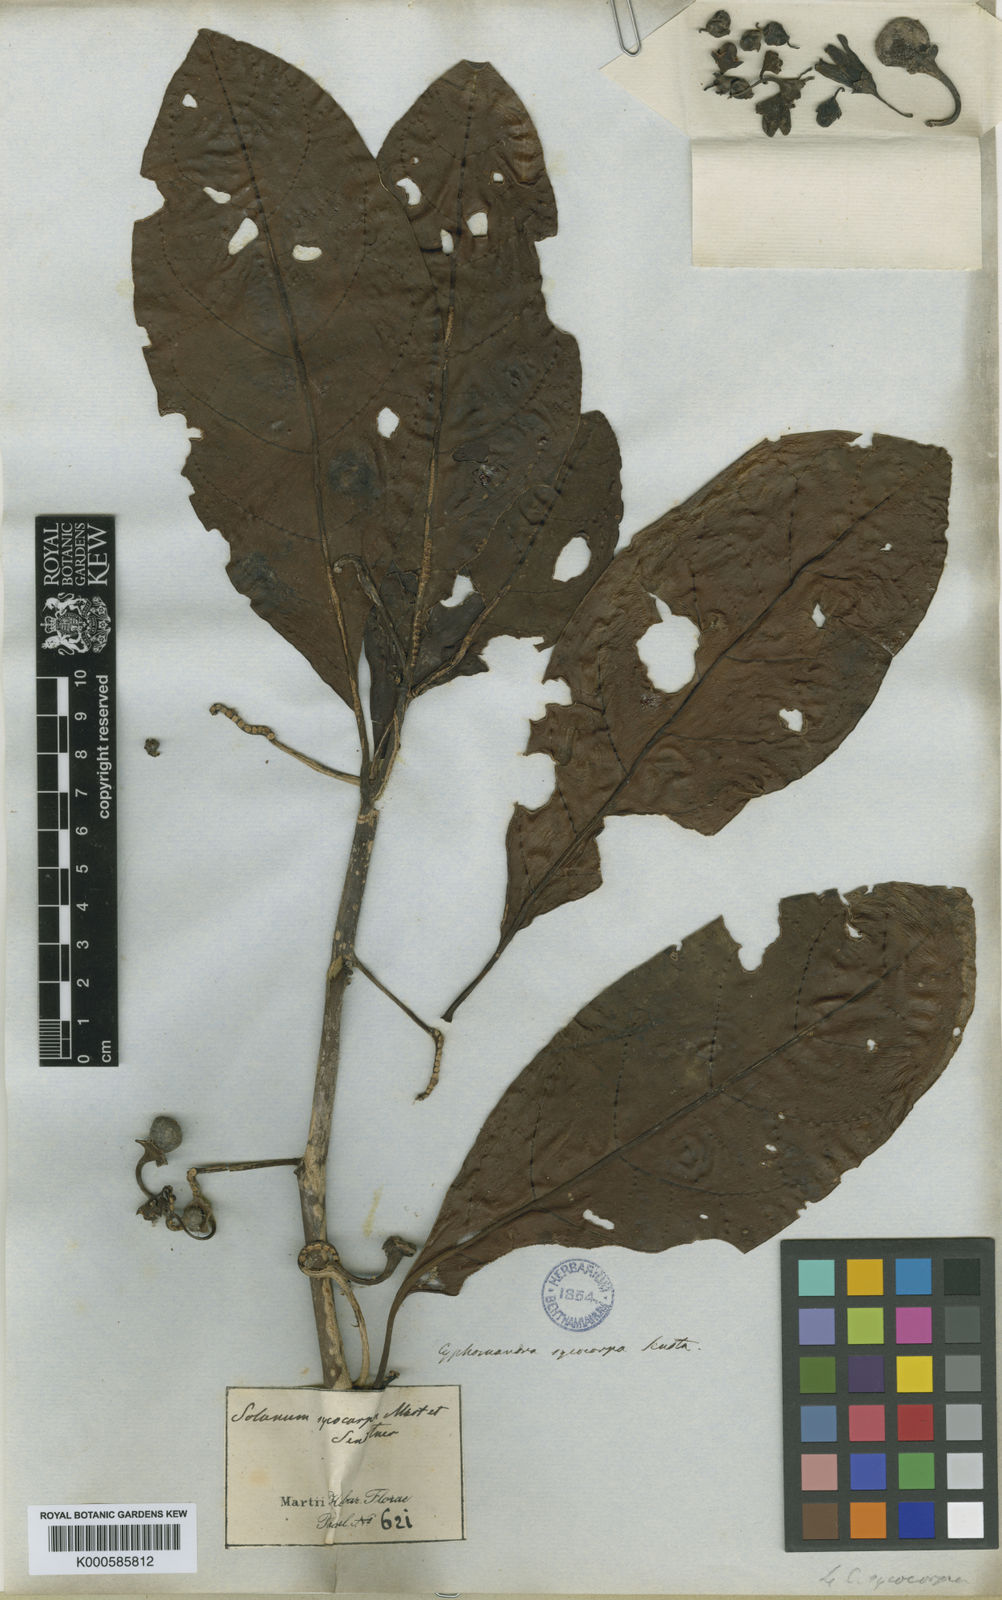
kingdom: Plantae
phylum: Tracheophyta
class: Magnoliopsida
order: Solanales
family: Solanaceae
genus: Solanum
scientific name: Solanum sycocarpum
